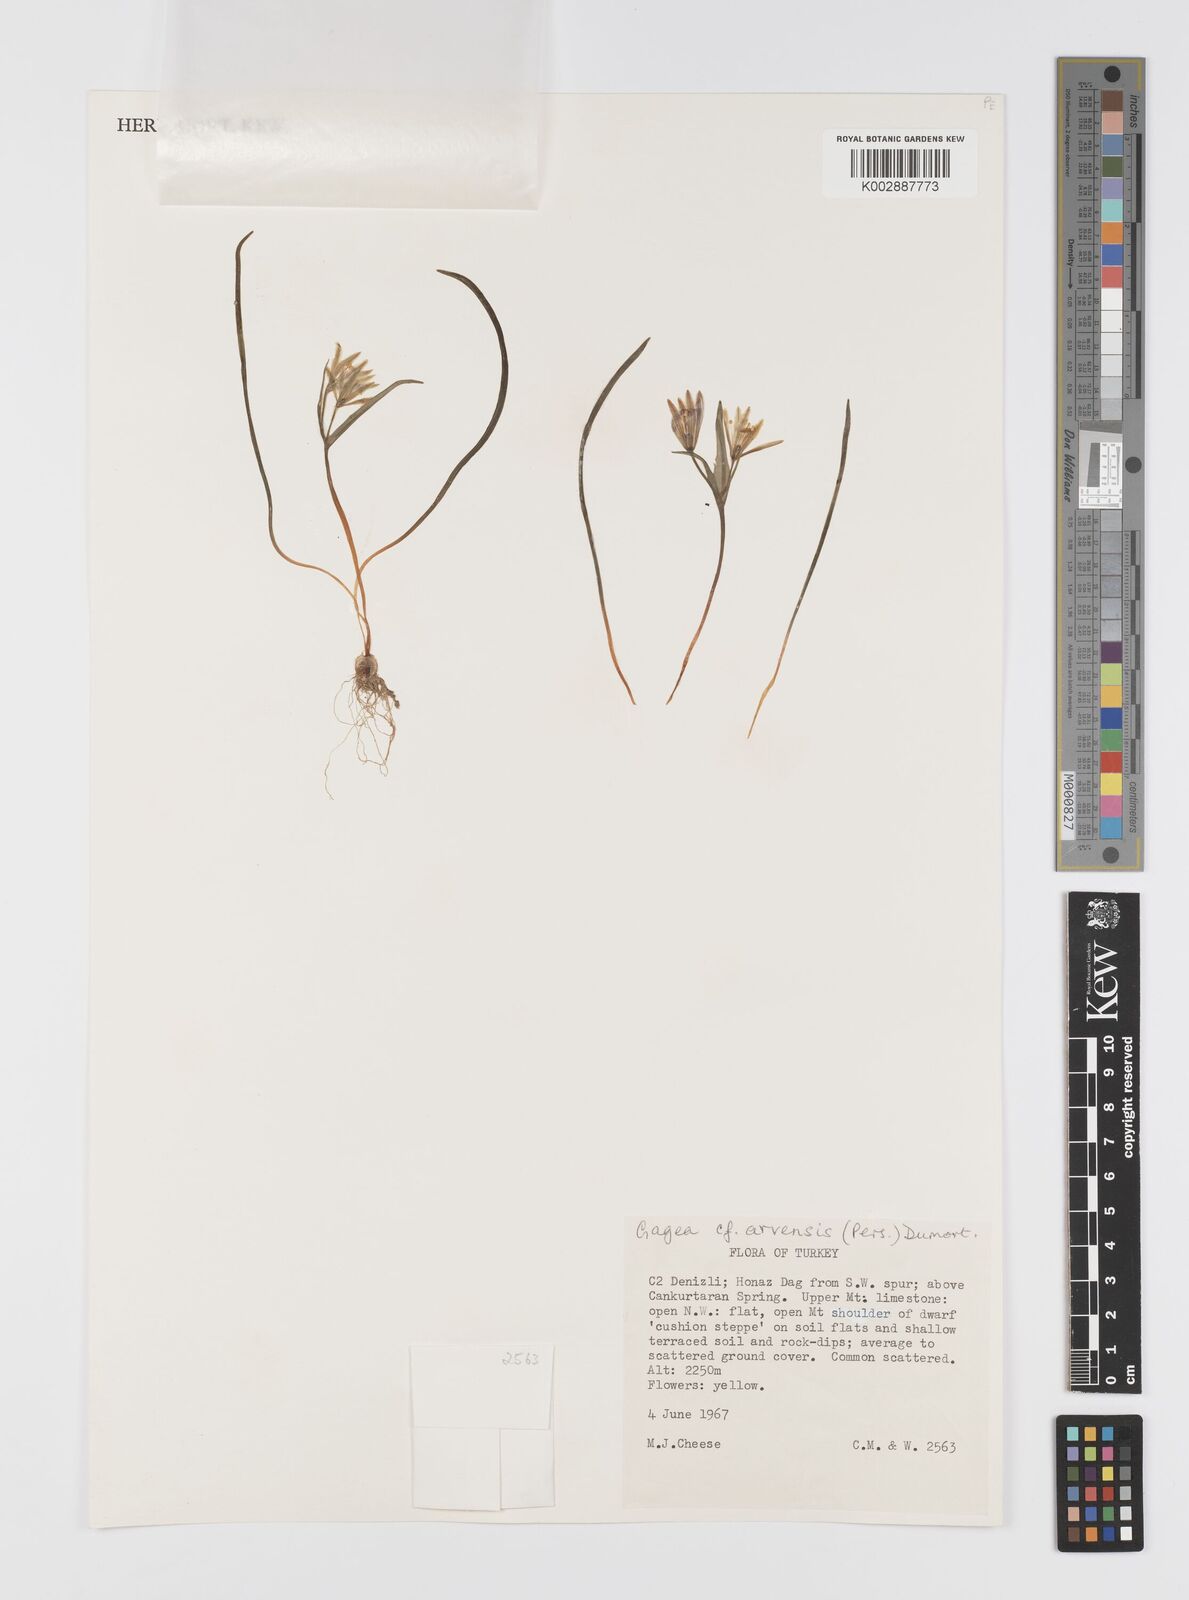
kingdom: Plantae
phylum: Tracheophyta
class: Liliopsida
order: Liliales
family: Liliaceae
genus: Gagea
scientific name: Gagea villosa
